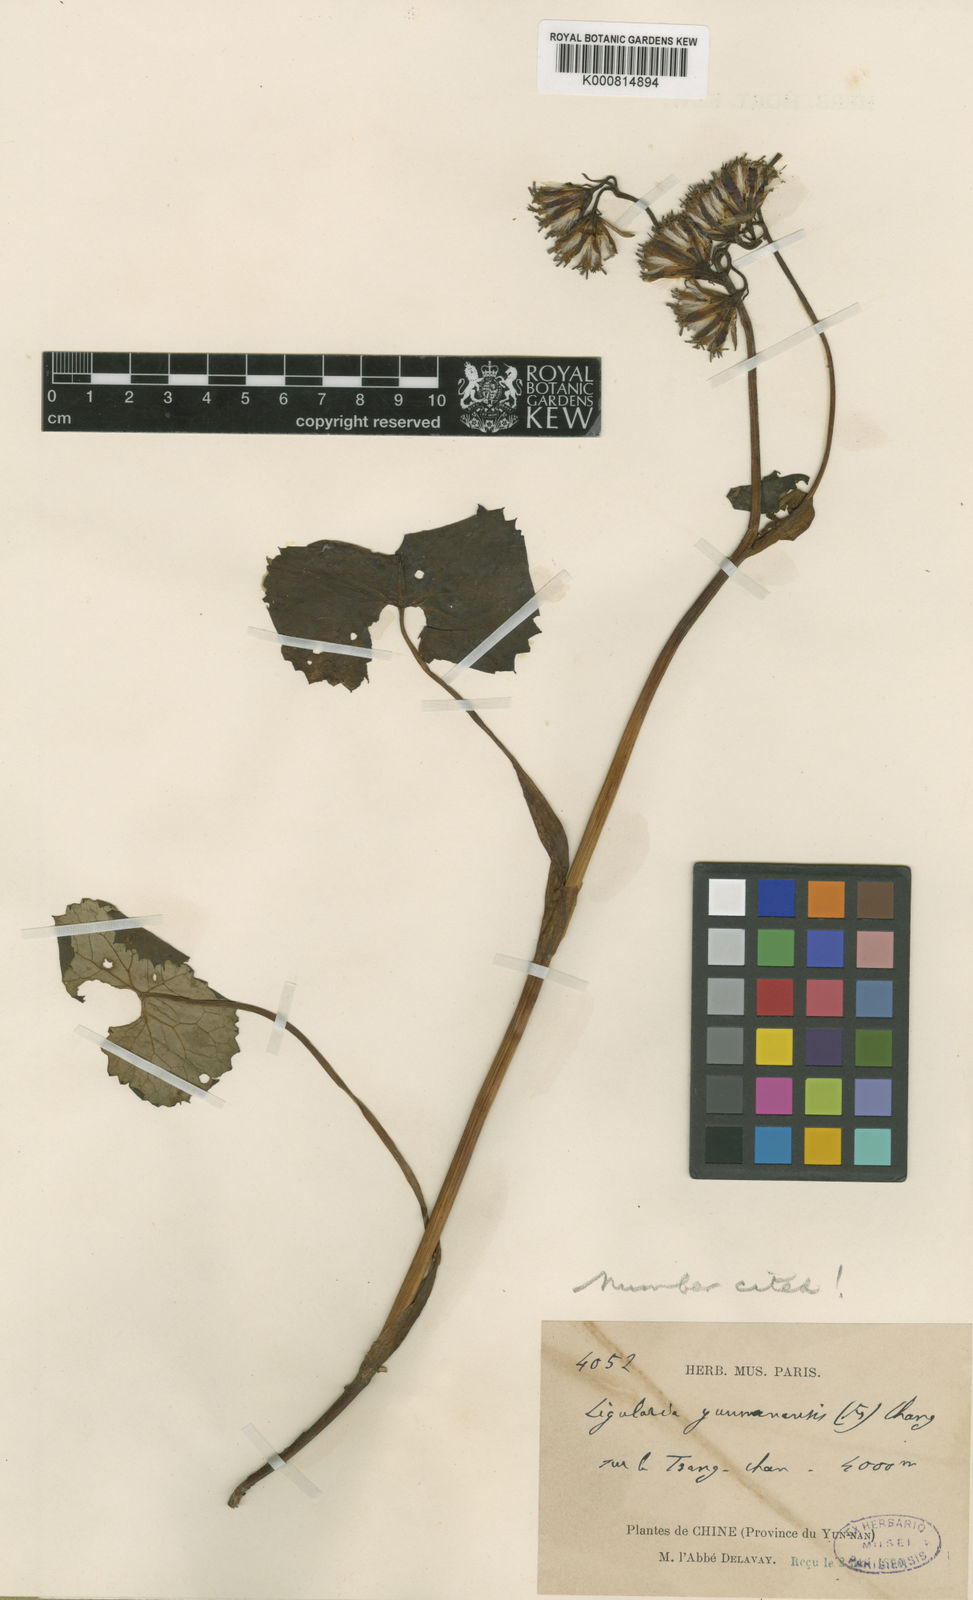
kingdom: Plantae
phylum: Tracheophyta
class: Magnoliopsida
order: Asterales
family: Asteraceae
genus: Ligularia
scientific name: Ligularia yunnanensis
